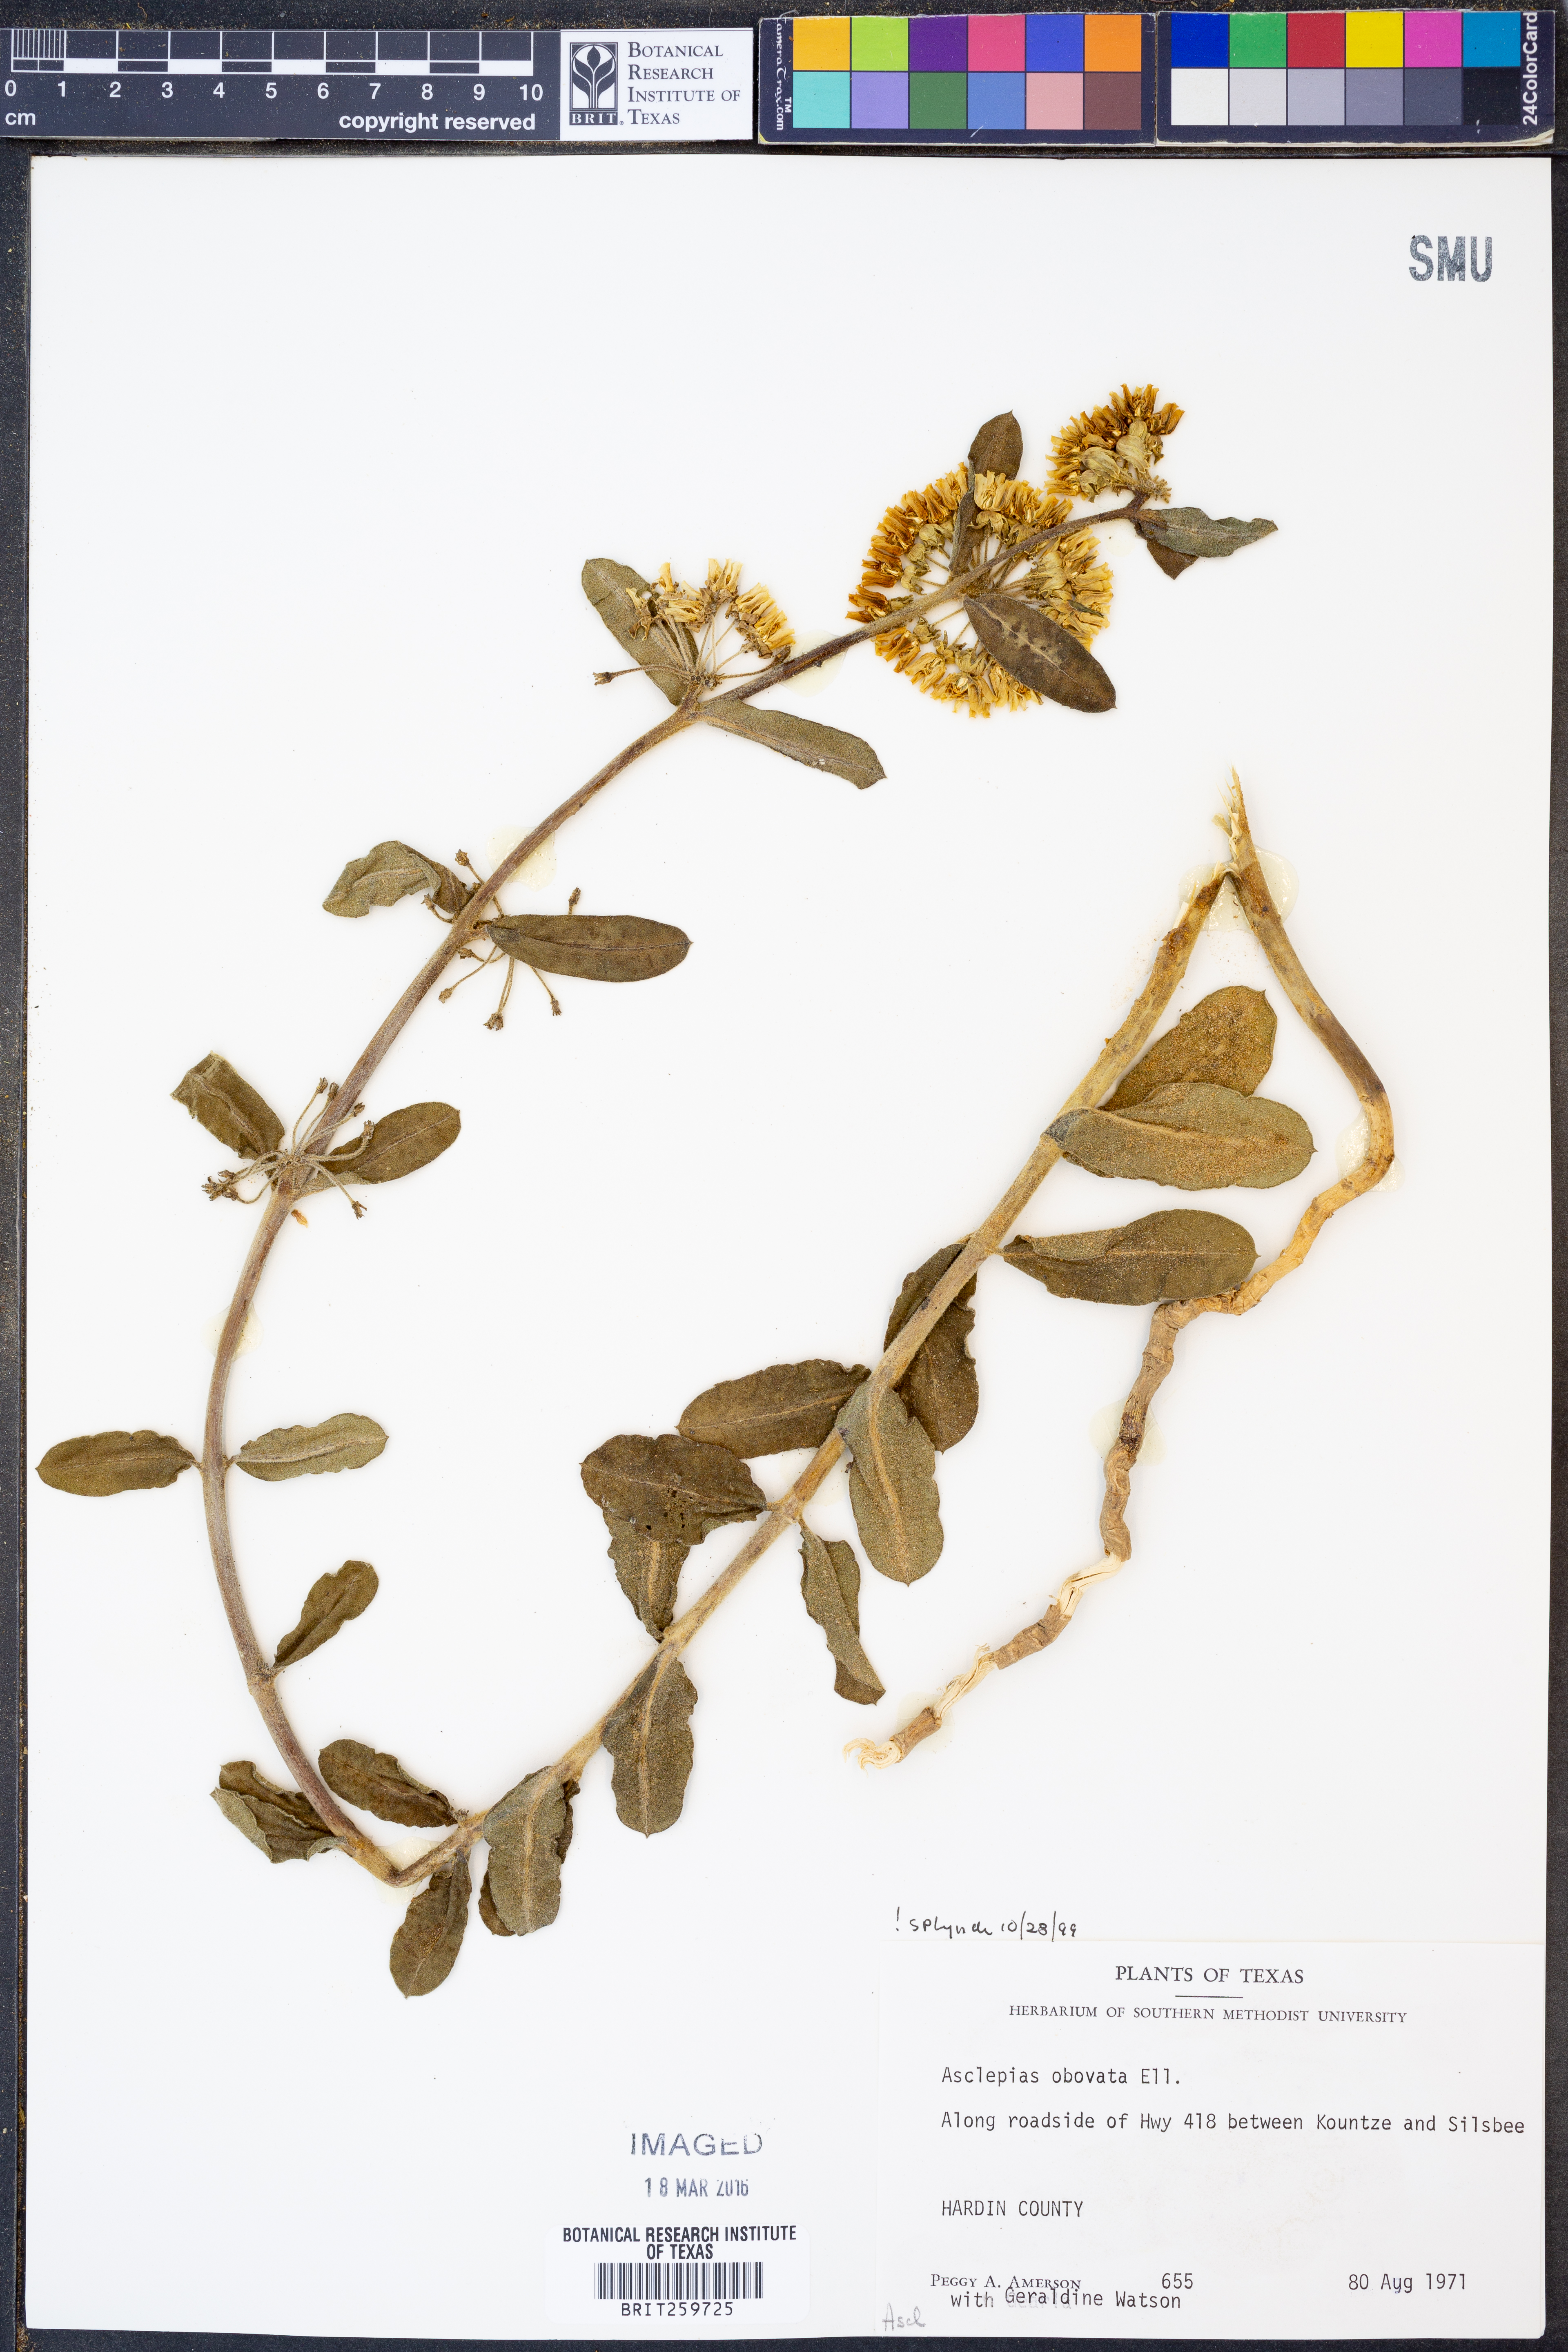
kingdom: Plantae
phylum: Tracheophyta
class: Magnoliopsida
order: Gentianales
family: Apocynaceae
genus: Asclepias
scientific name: Asclepias obovata
